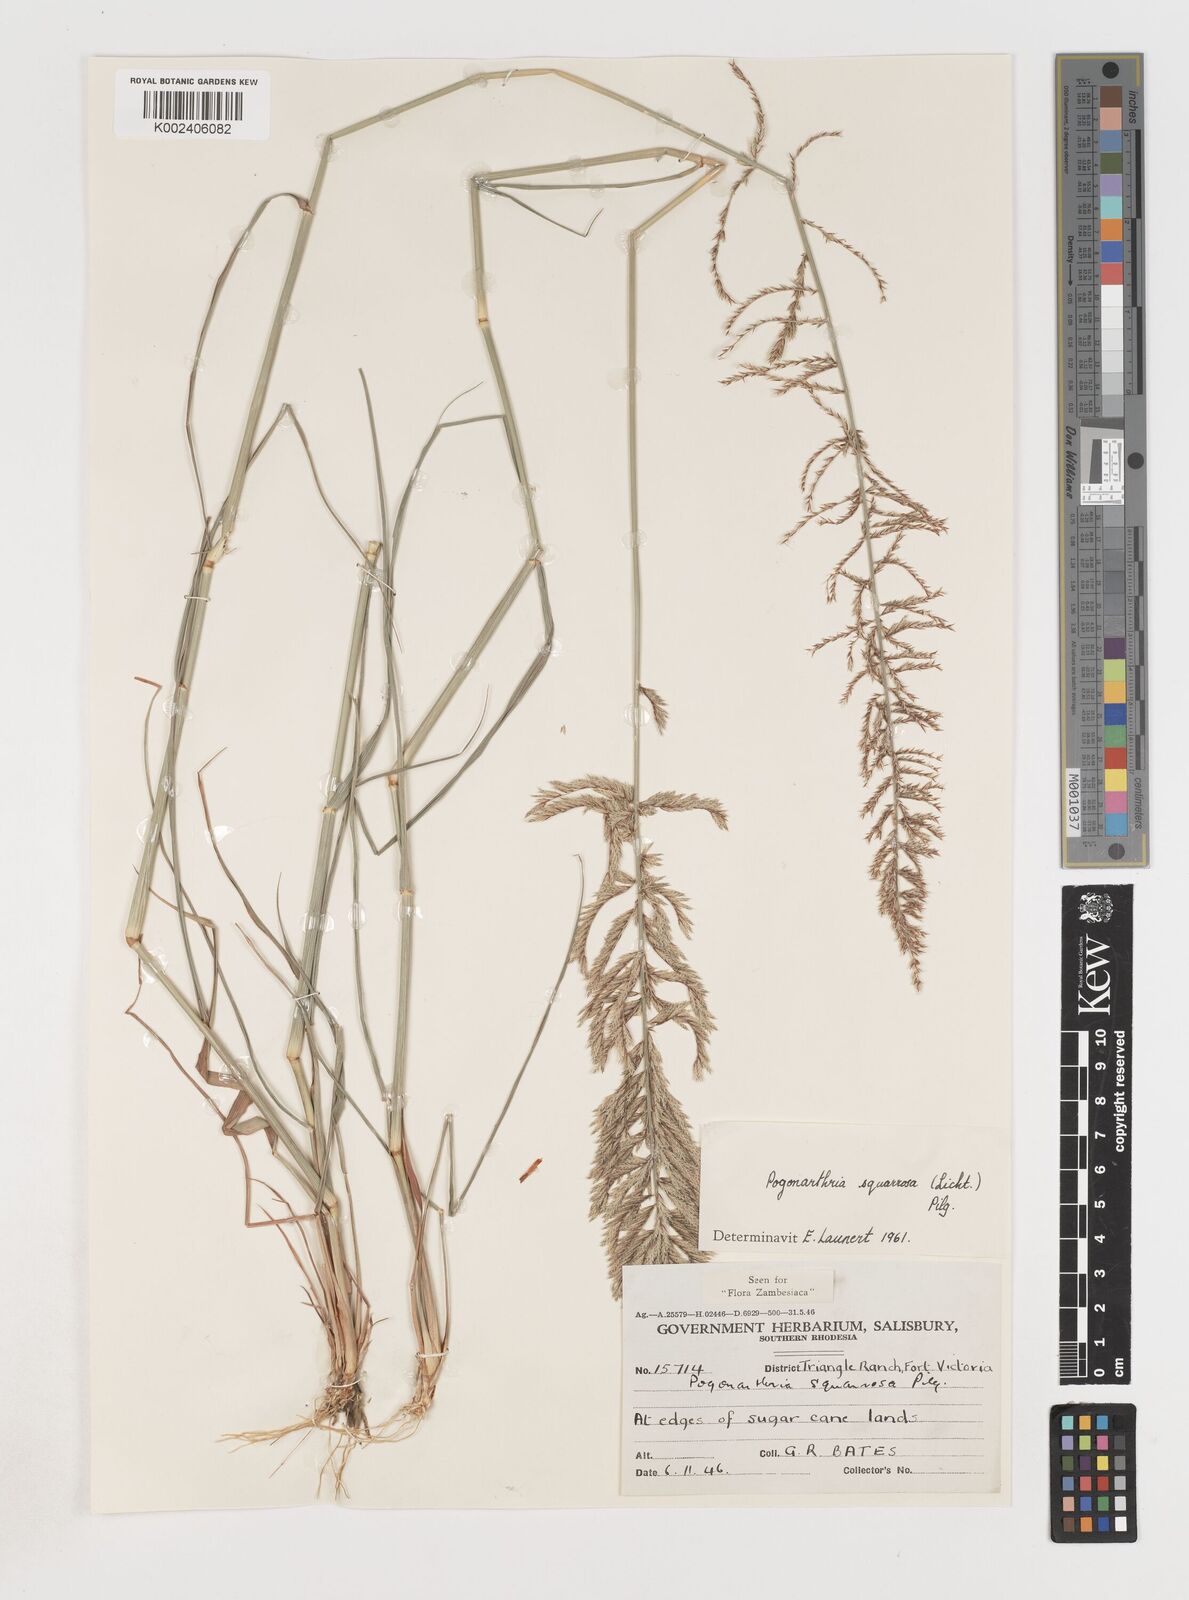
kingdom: Plantae
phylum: Tracheophyta
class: Liliopsida
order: Poales
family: Poaceae
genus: Pogonarthria
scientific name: Pogonarthria squarrosa
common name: Grass
